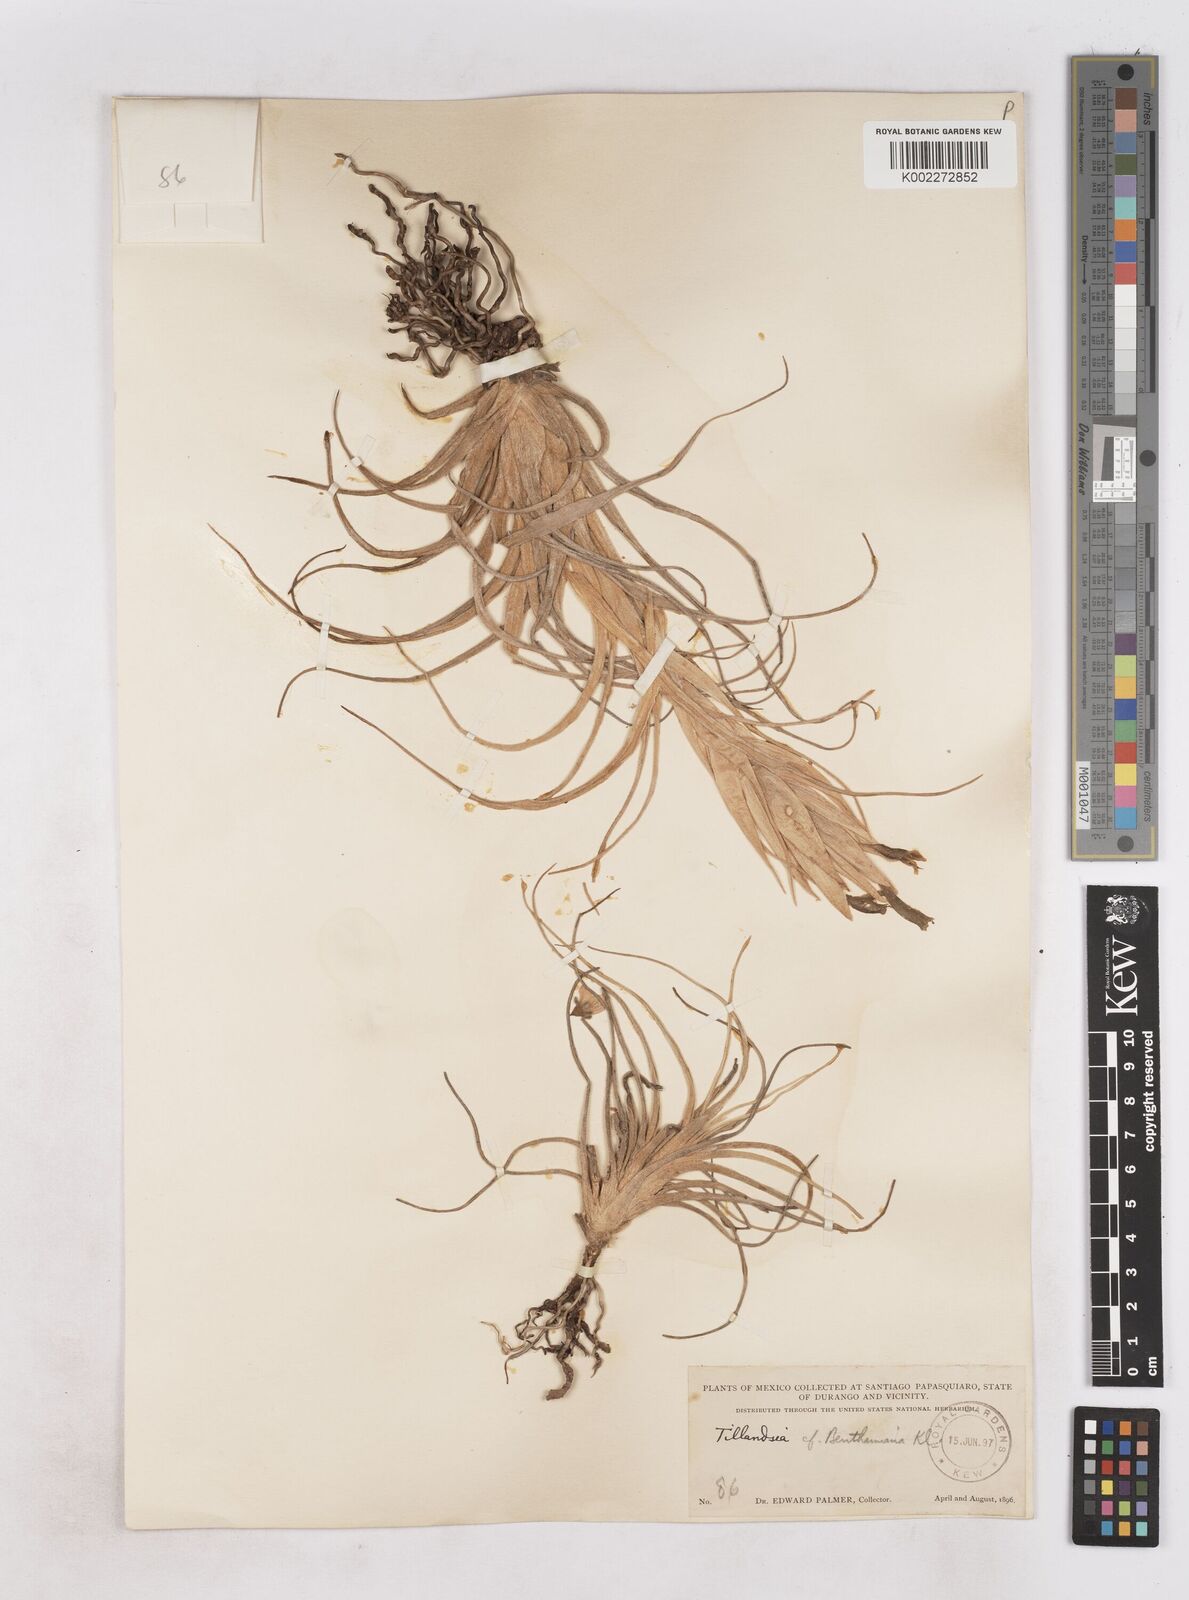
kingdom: Plantae
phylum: Tracheophyta
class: Liliopsida
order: Poales
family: Bromeliaceae
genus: Tillandsia
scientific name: Tillandsia erubescens
